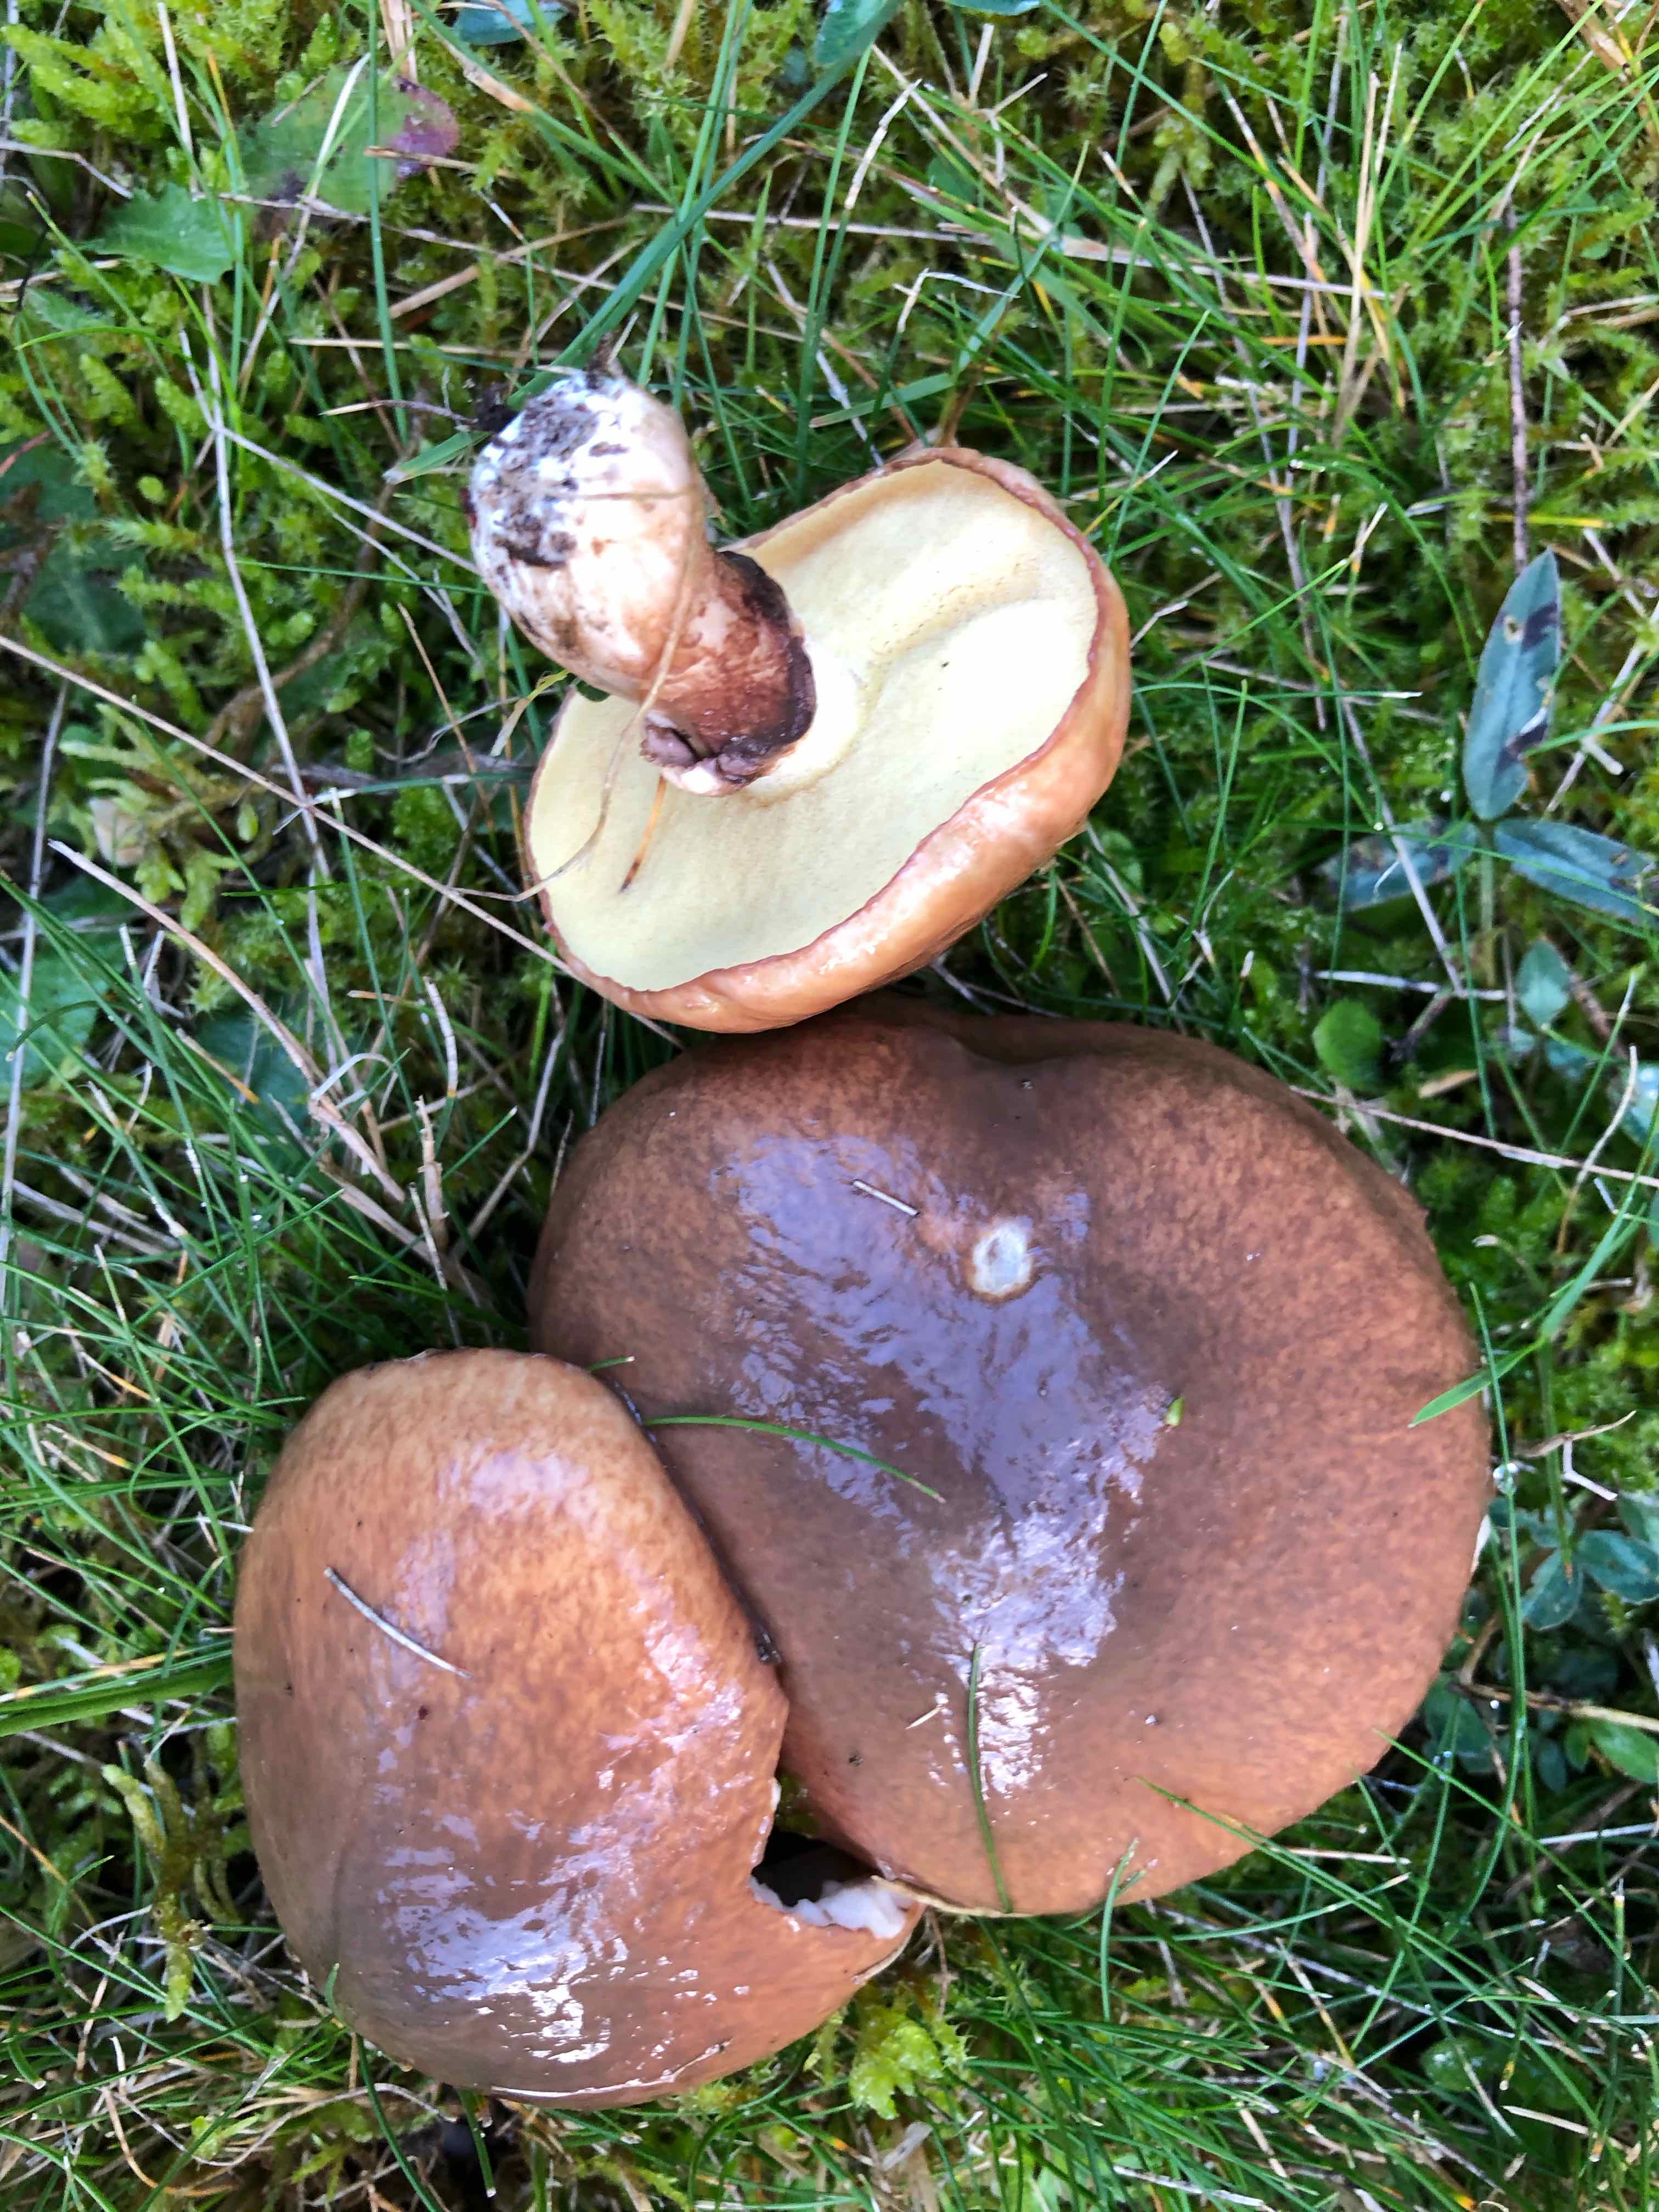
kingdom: Fungi
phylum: Basidiomycota
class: Agaricomycetes
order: Boletales
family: Suillaceae
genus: Suillus
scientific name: Suillus luteus
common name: brungul slimrørhat
